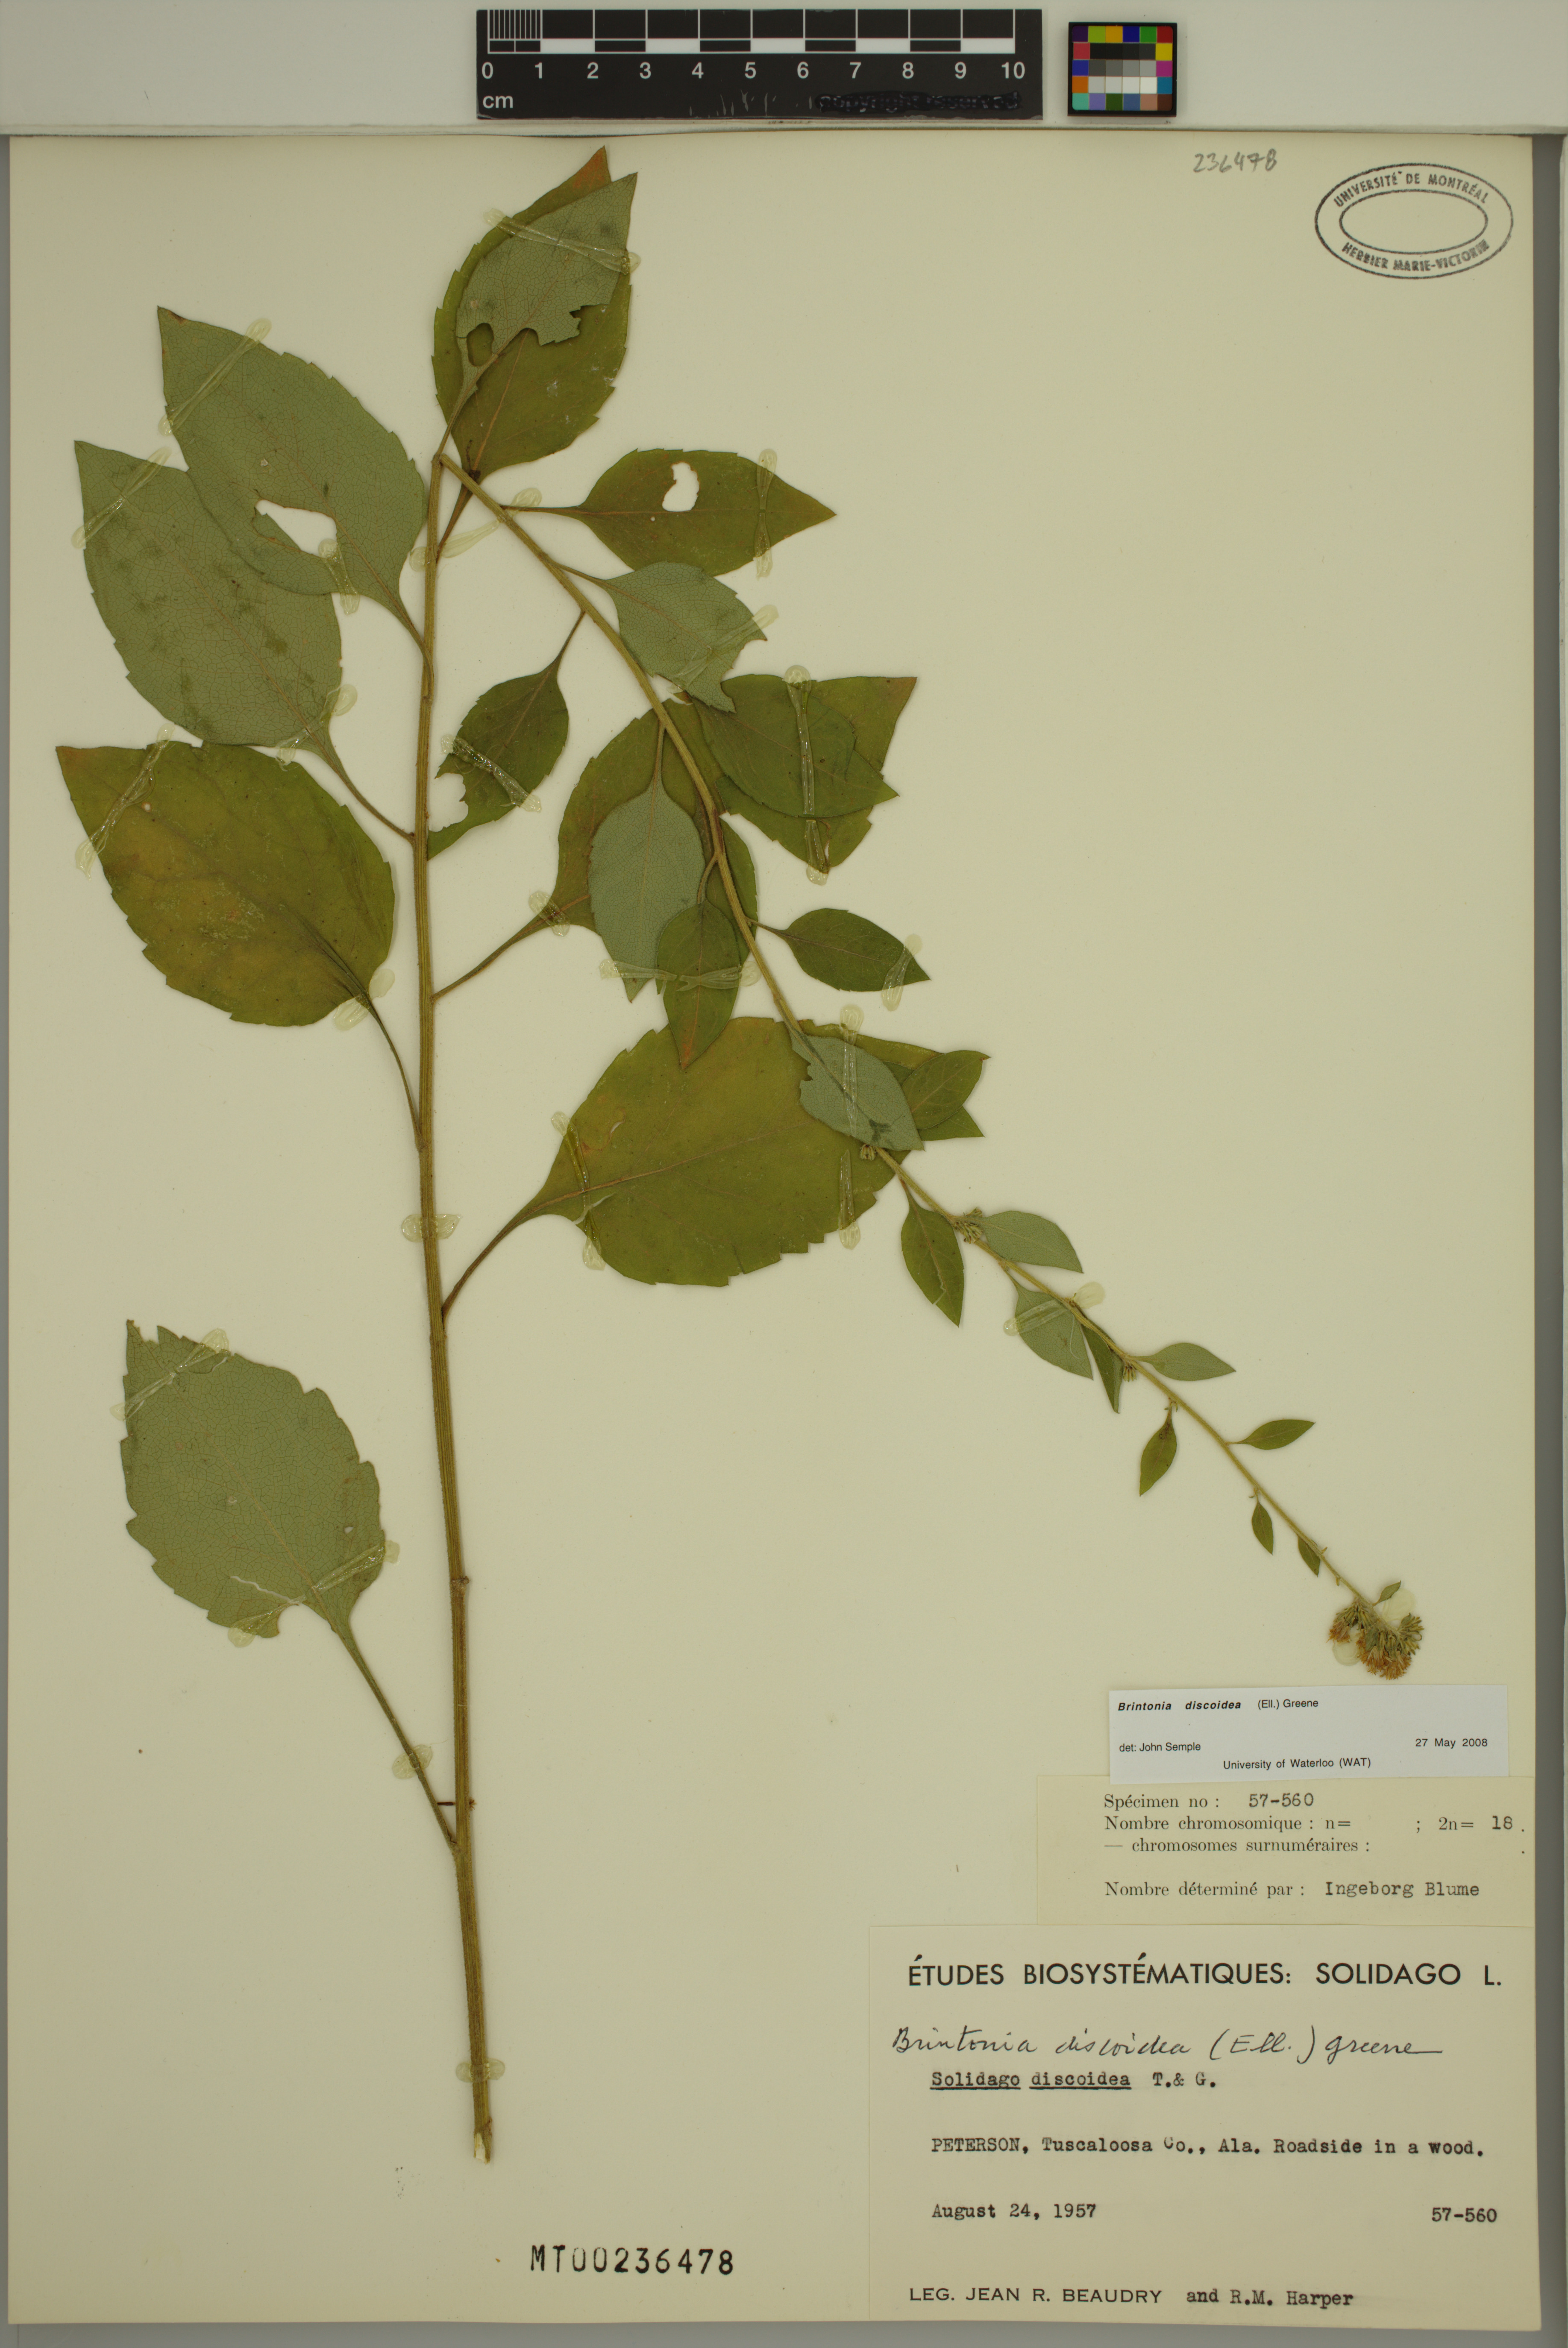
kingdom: Plantae
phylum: Tracheophyta
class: Magnoliopsida
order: Asterales
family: Asteraceae
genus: Solidago
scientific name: Solidago discoidea
